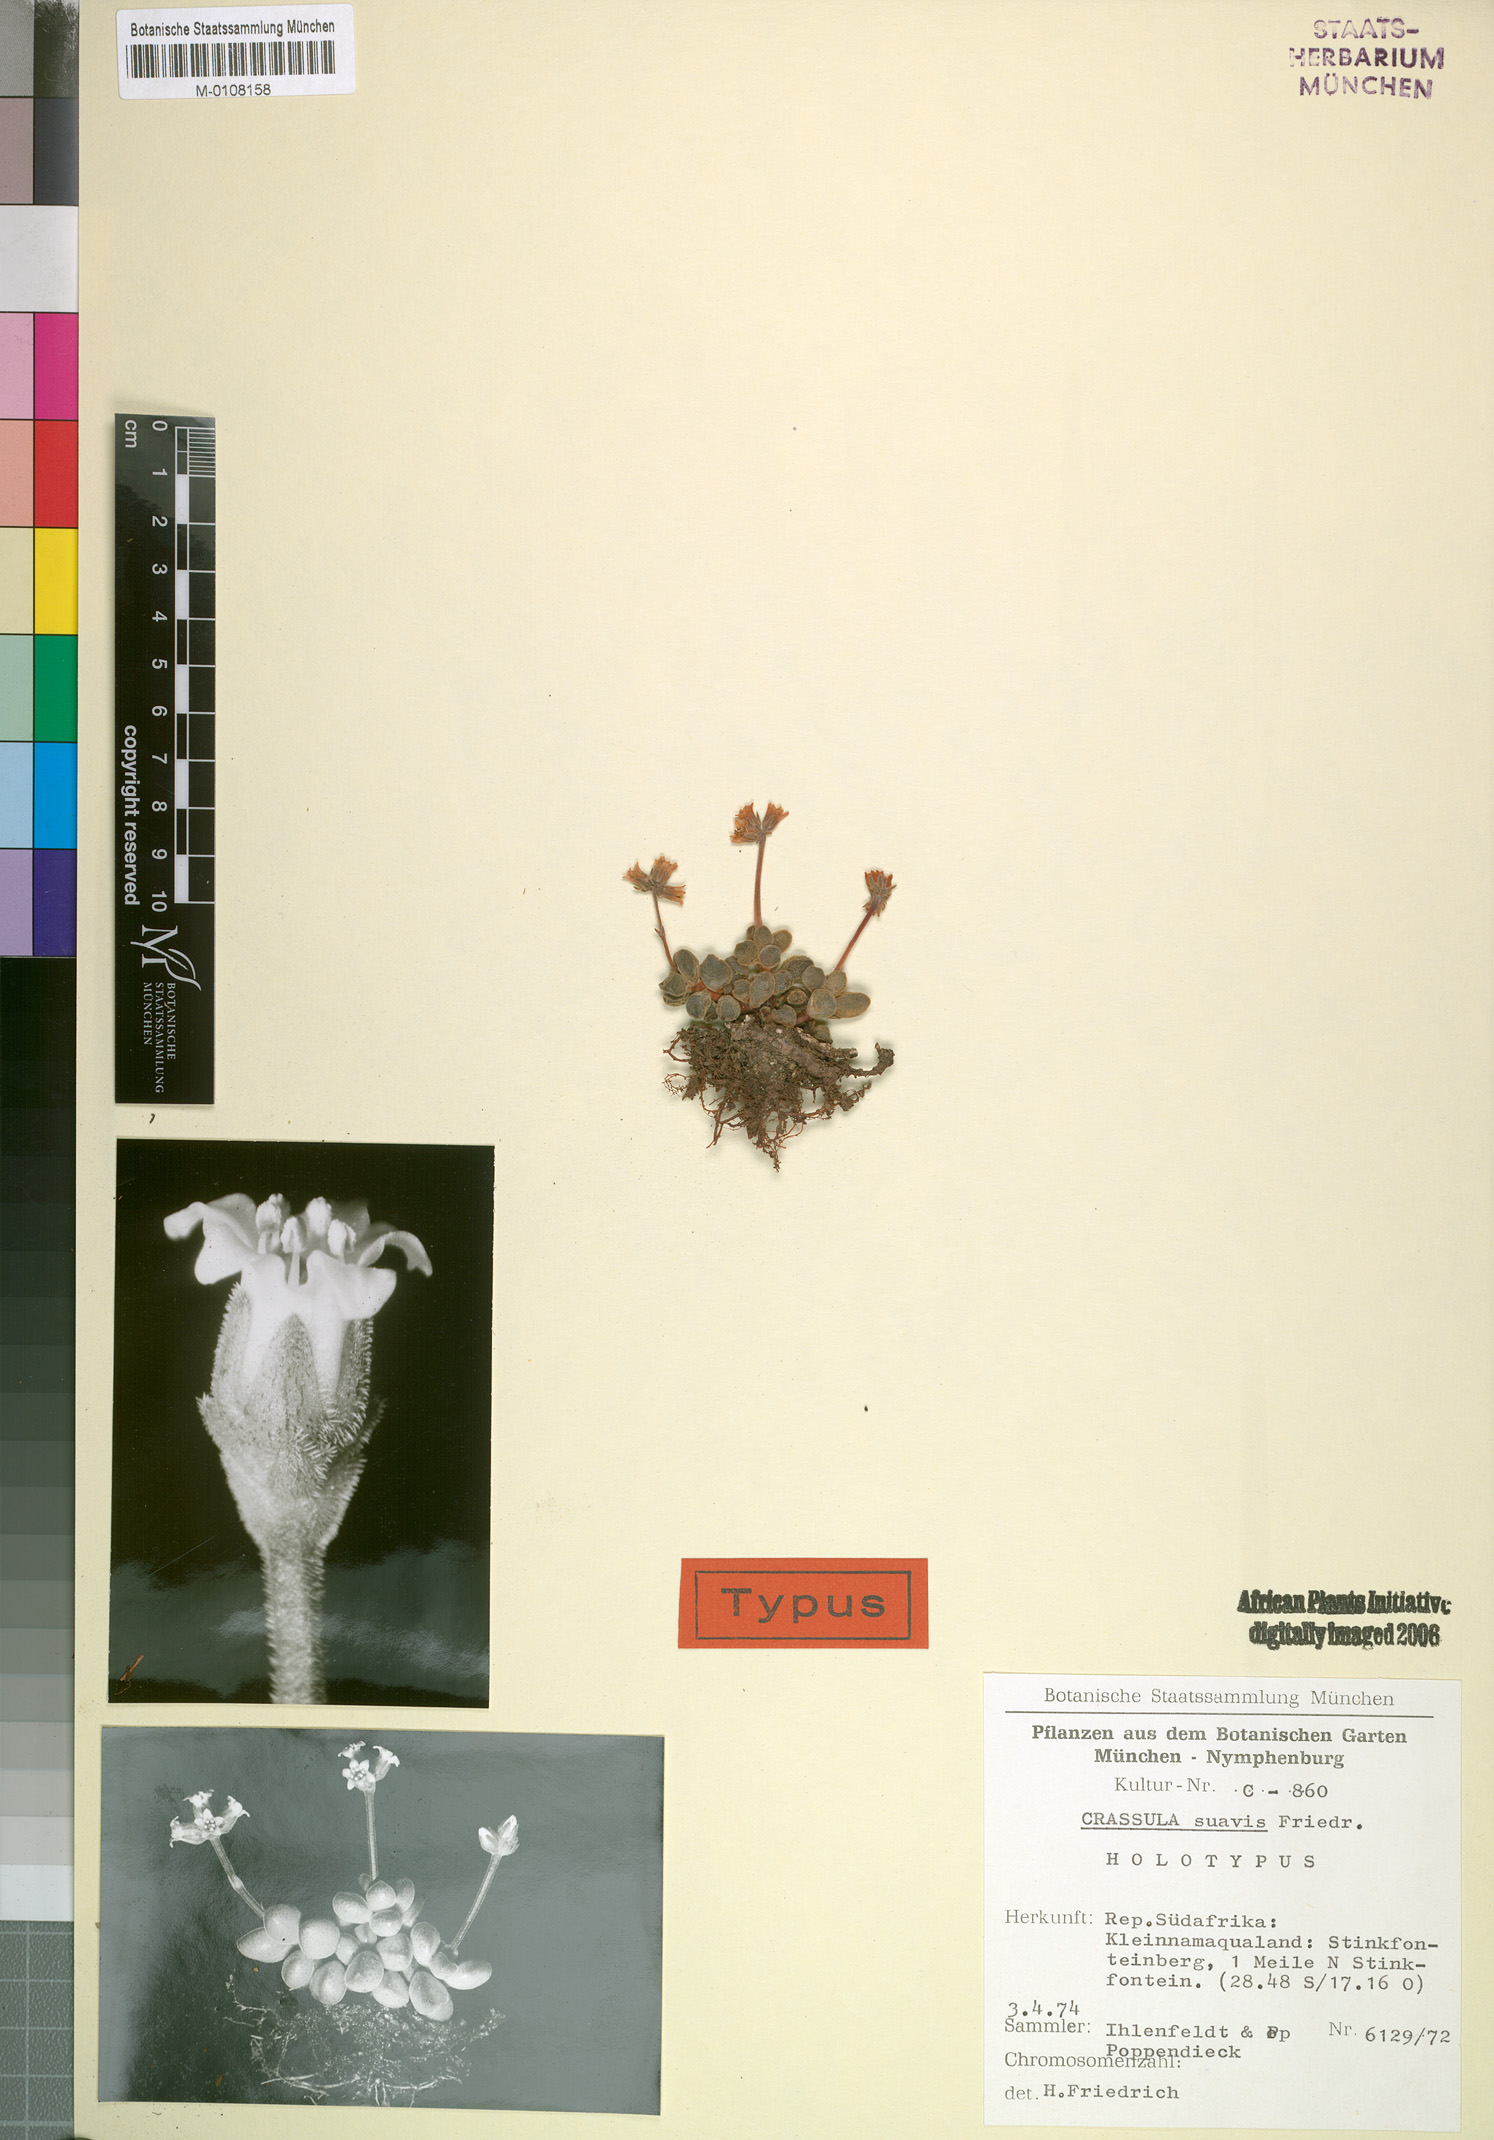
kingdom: Plantae
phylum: Tracheophyta
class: Magnoliopsida
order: Saxifragales
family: Crassulaceae
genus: Crassula
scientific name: Crassula sericea
